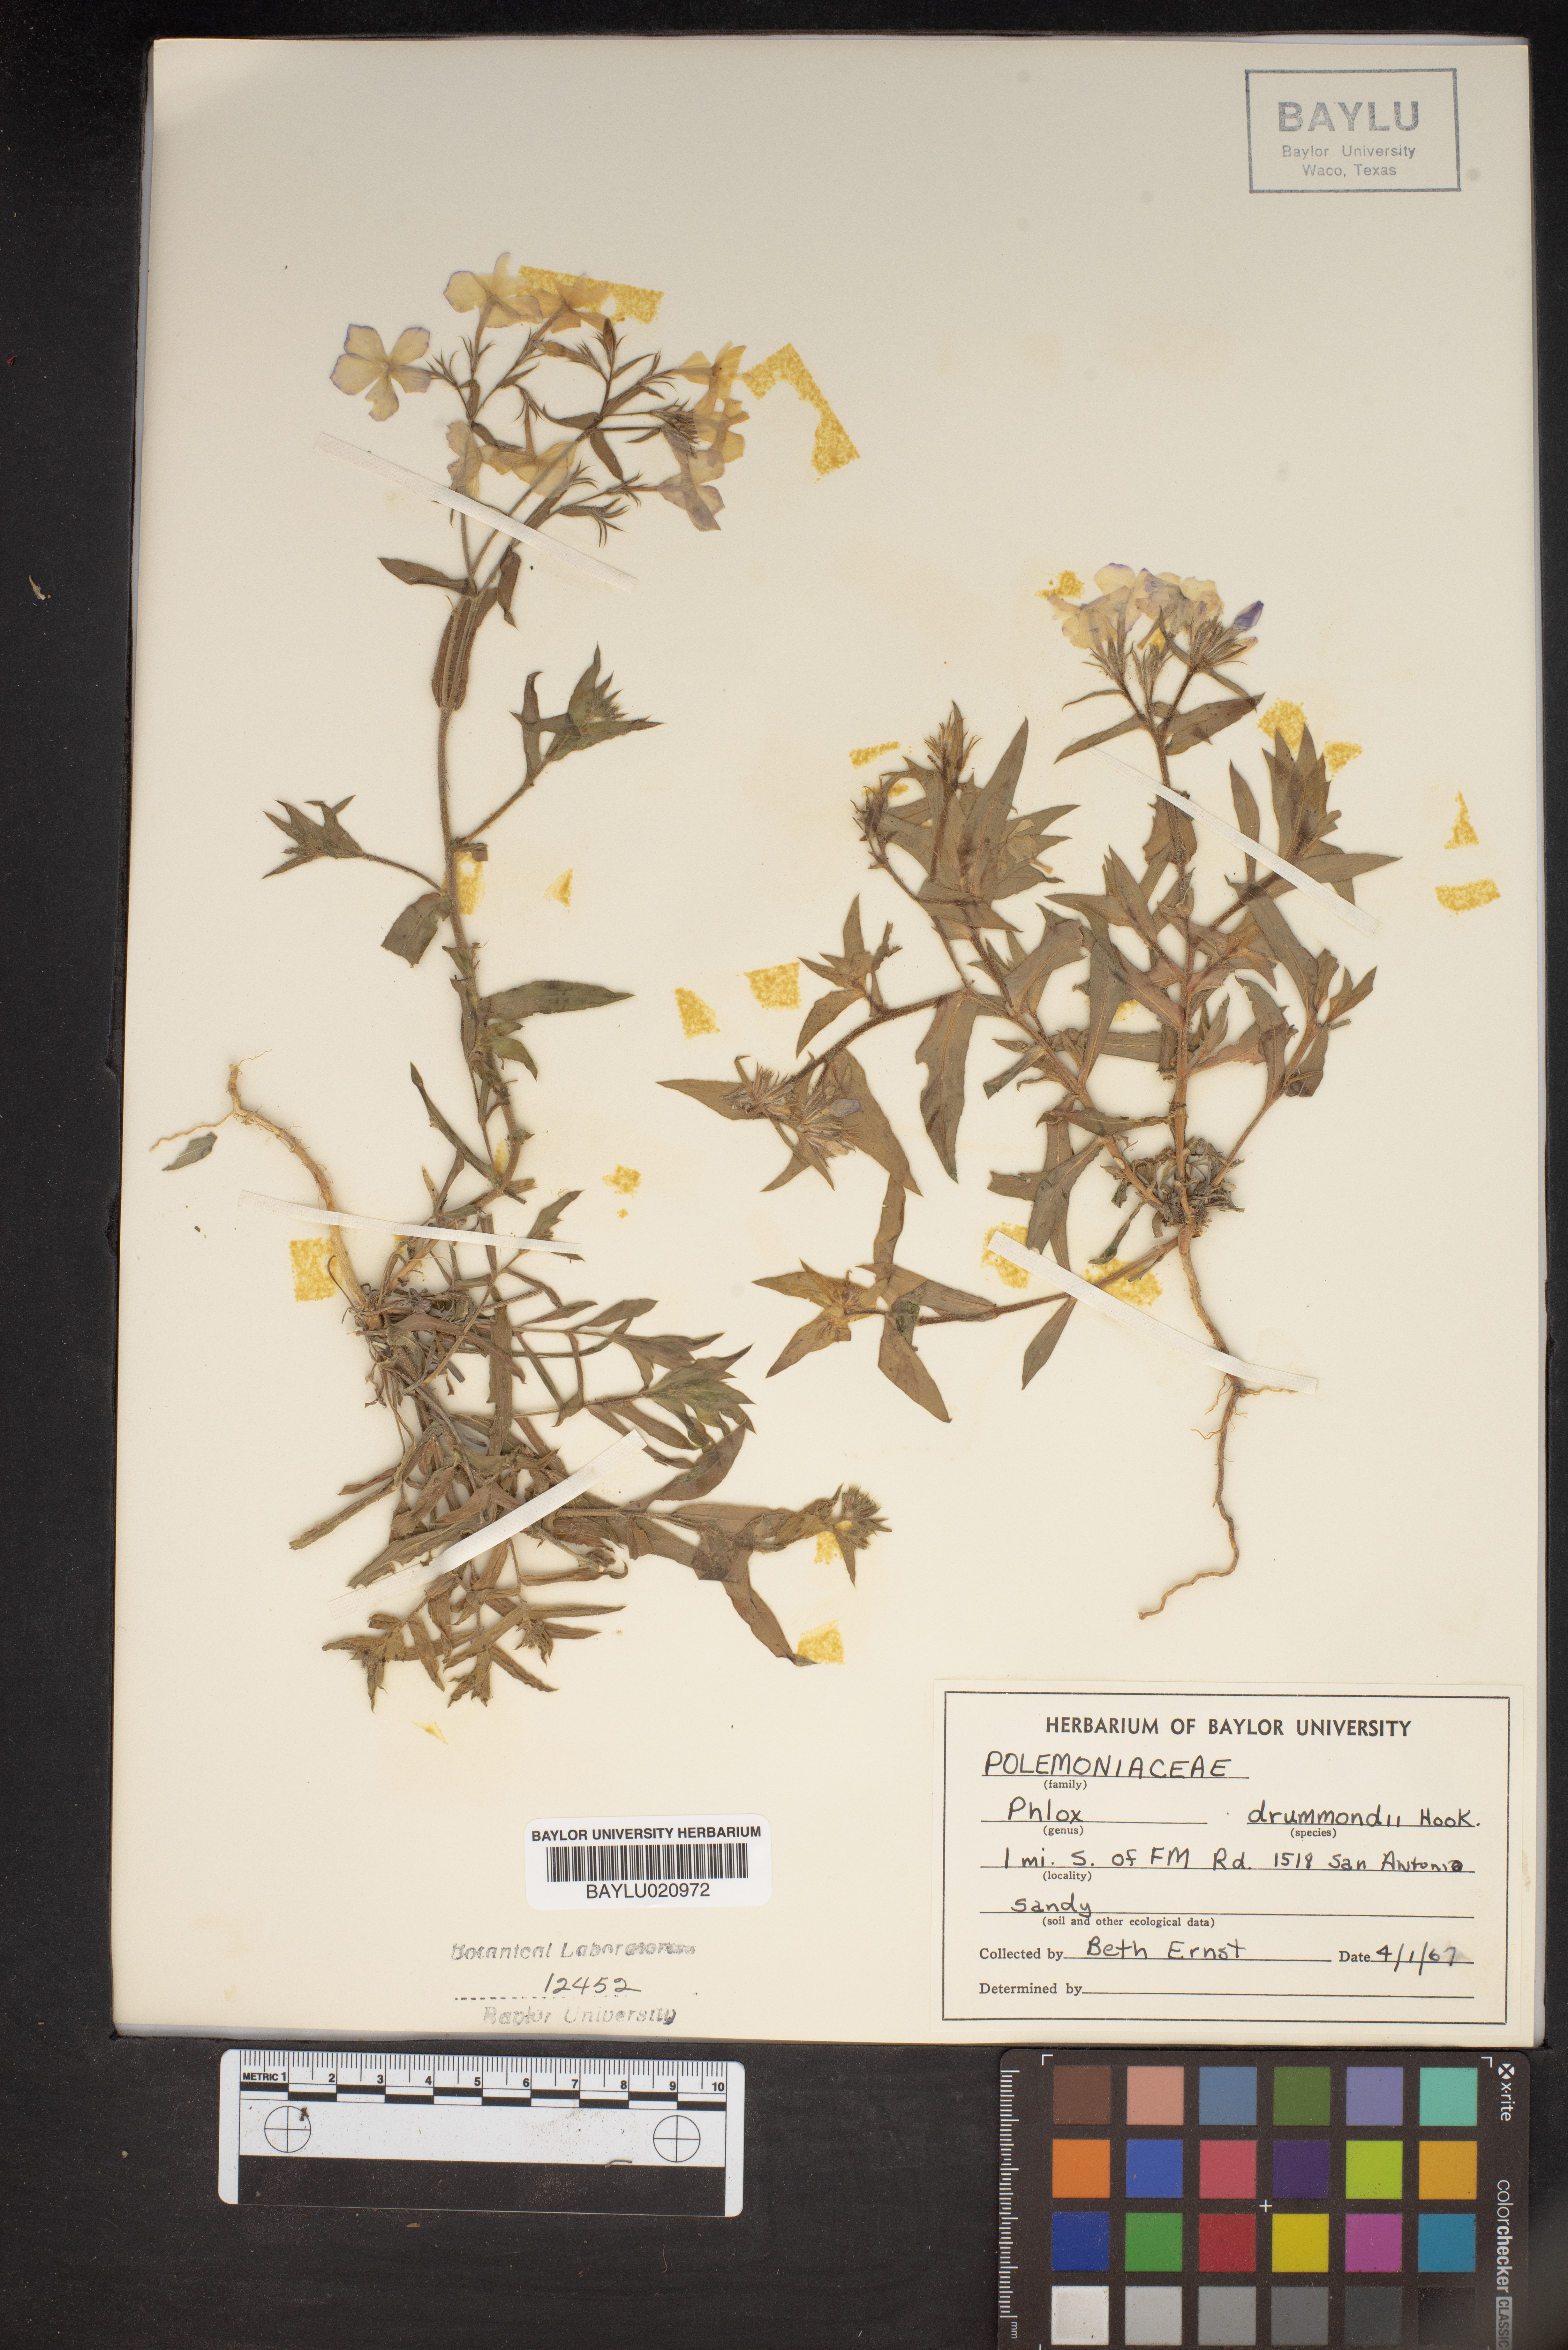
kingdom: Plantae
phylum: Tracheophyta
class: Magnoliopsida
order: Ericales
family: Polemoniaceae
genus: Phlox
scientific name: Phlox drummondii
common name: Drummond's phlox
